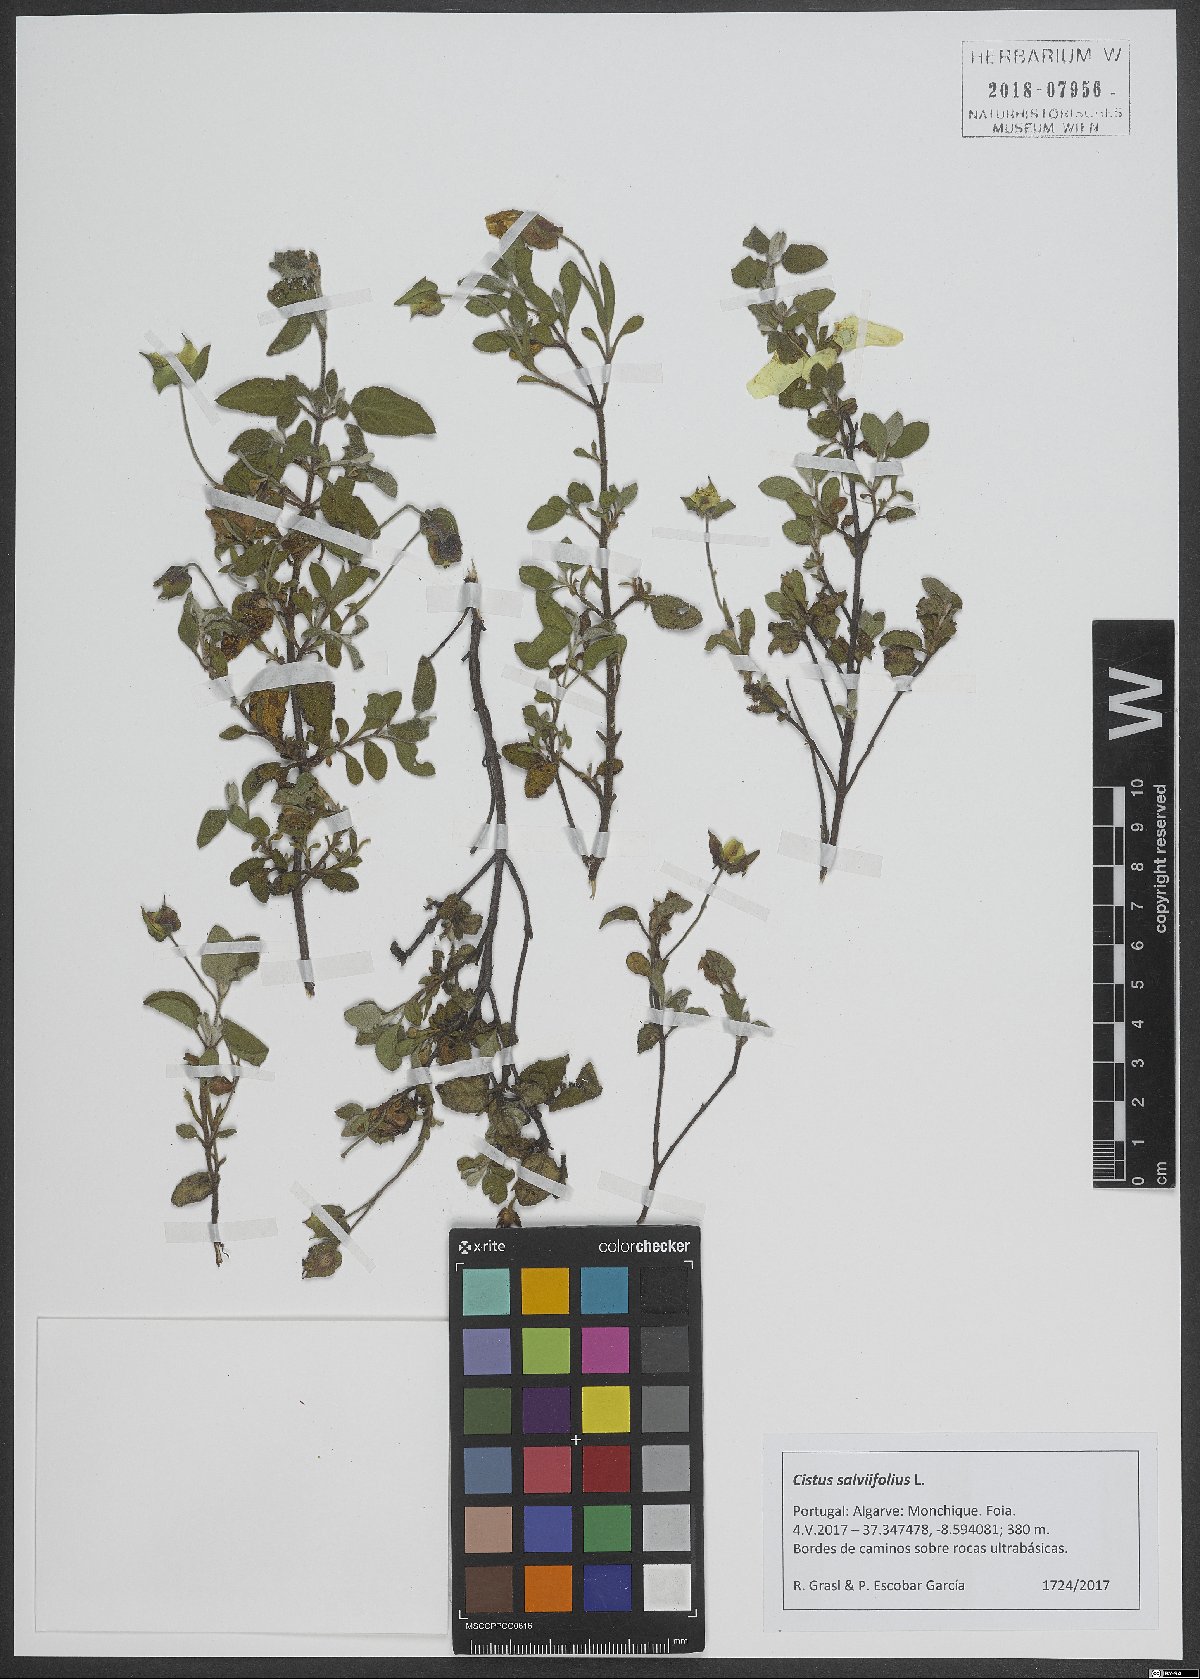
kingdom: Plantae
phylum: Tracheophyta
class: Magnoliopsida
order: Malvales
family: Cistaceae
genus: Cistus
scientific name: Cistus salviifolius
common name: Salvia cistus
